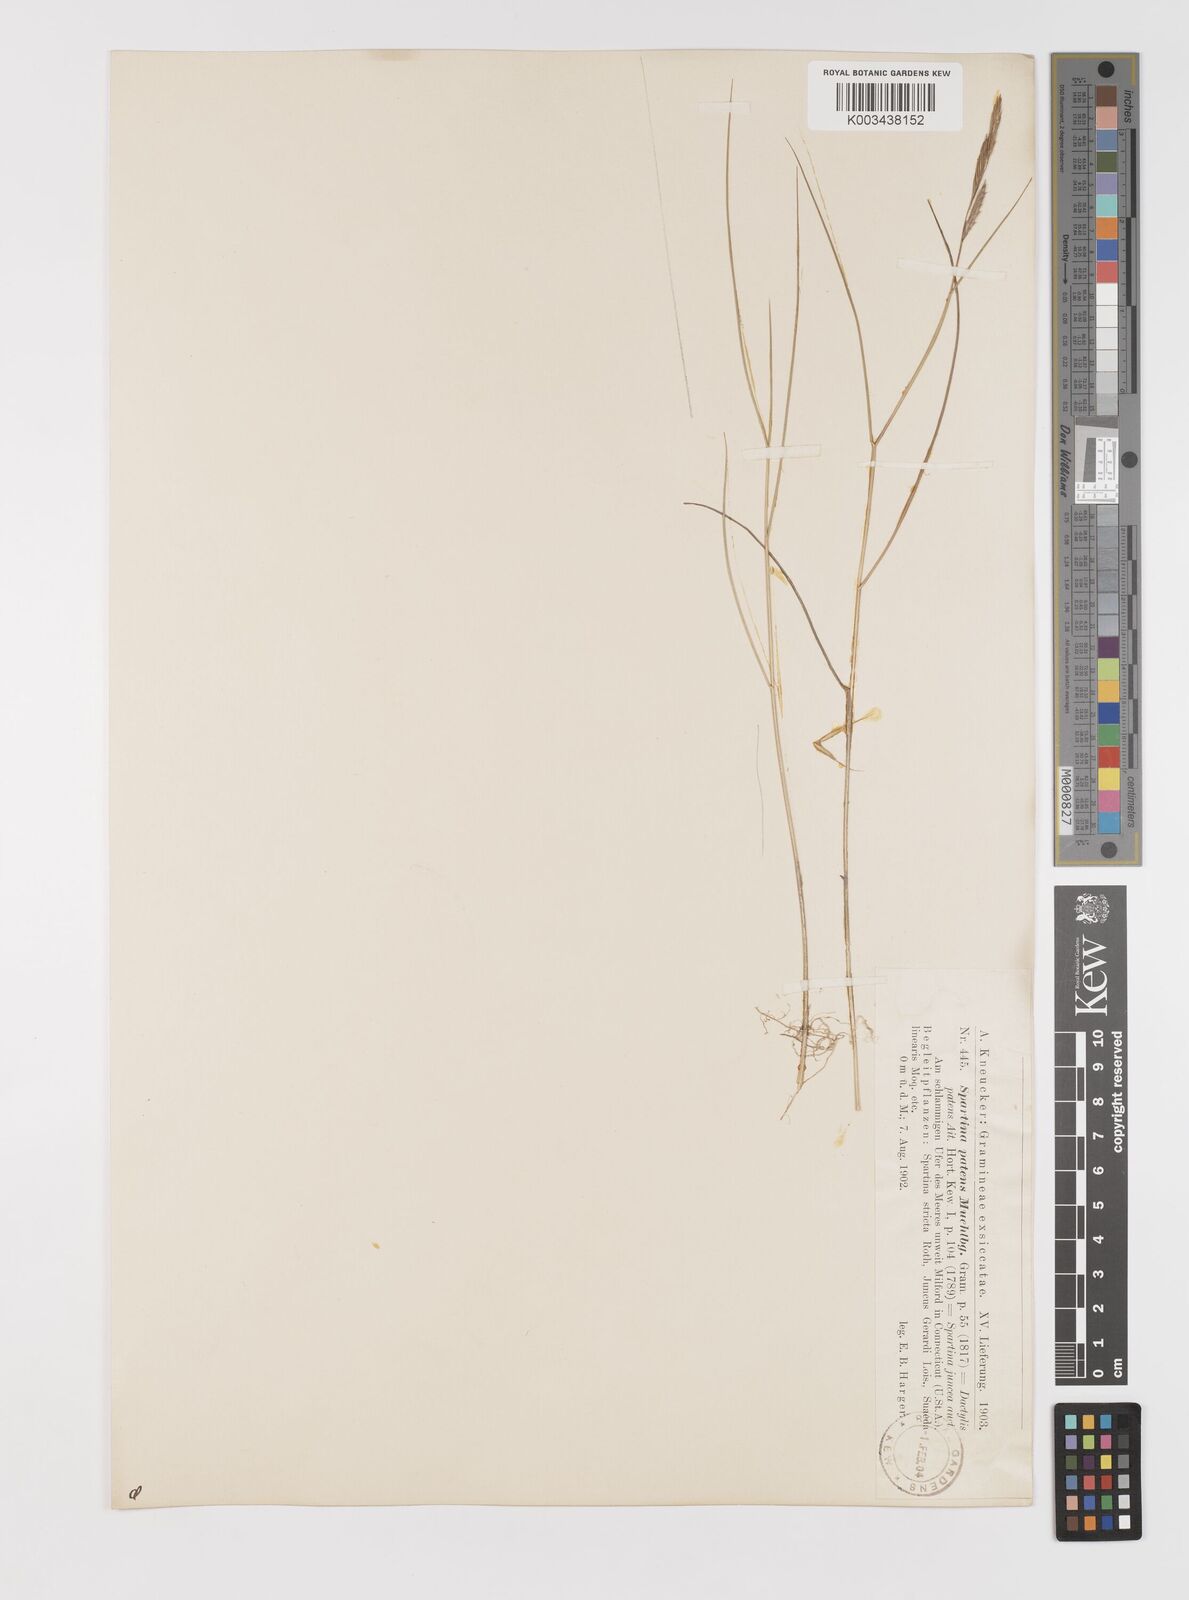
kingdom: Plantae
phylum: Tracheophyta
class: Liliopsida
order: Poales
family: Poaceae
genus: Sporobolus
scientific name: Sporobolus pumilus
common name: Highwater grass
